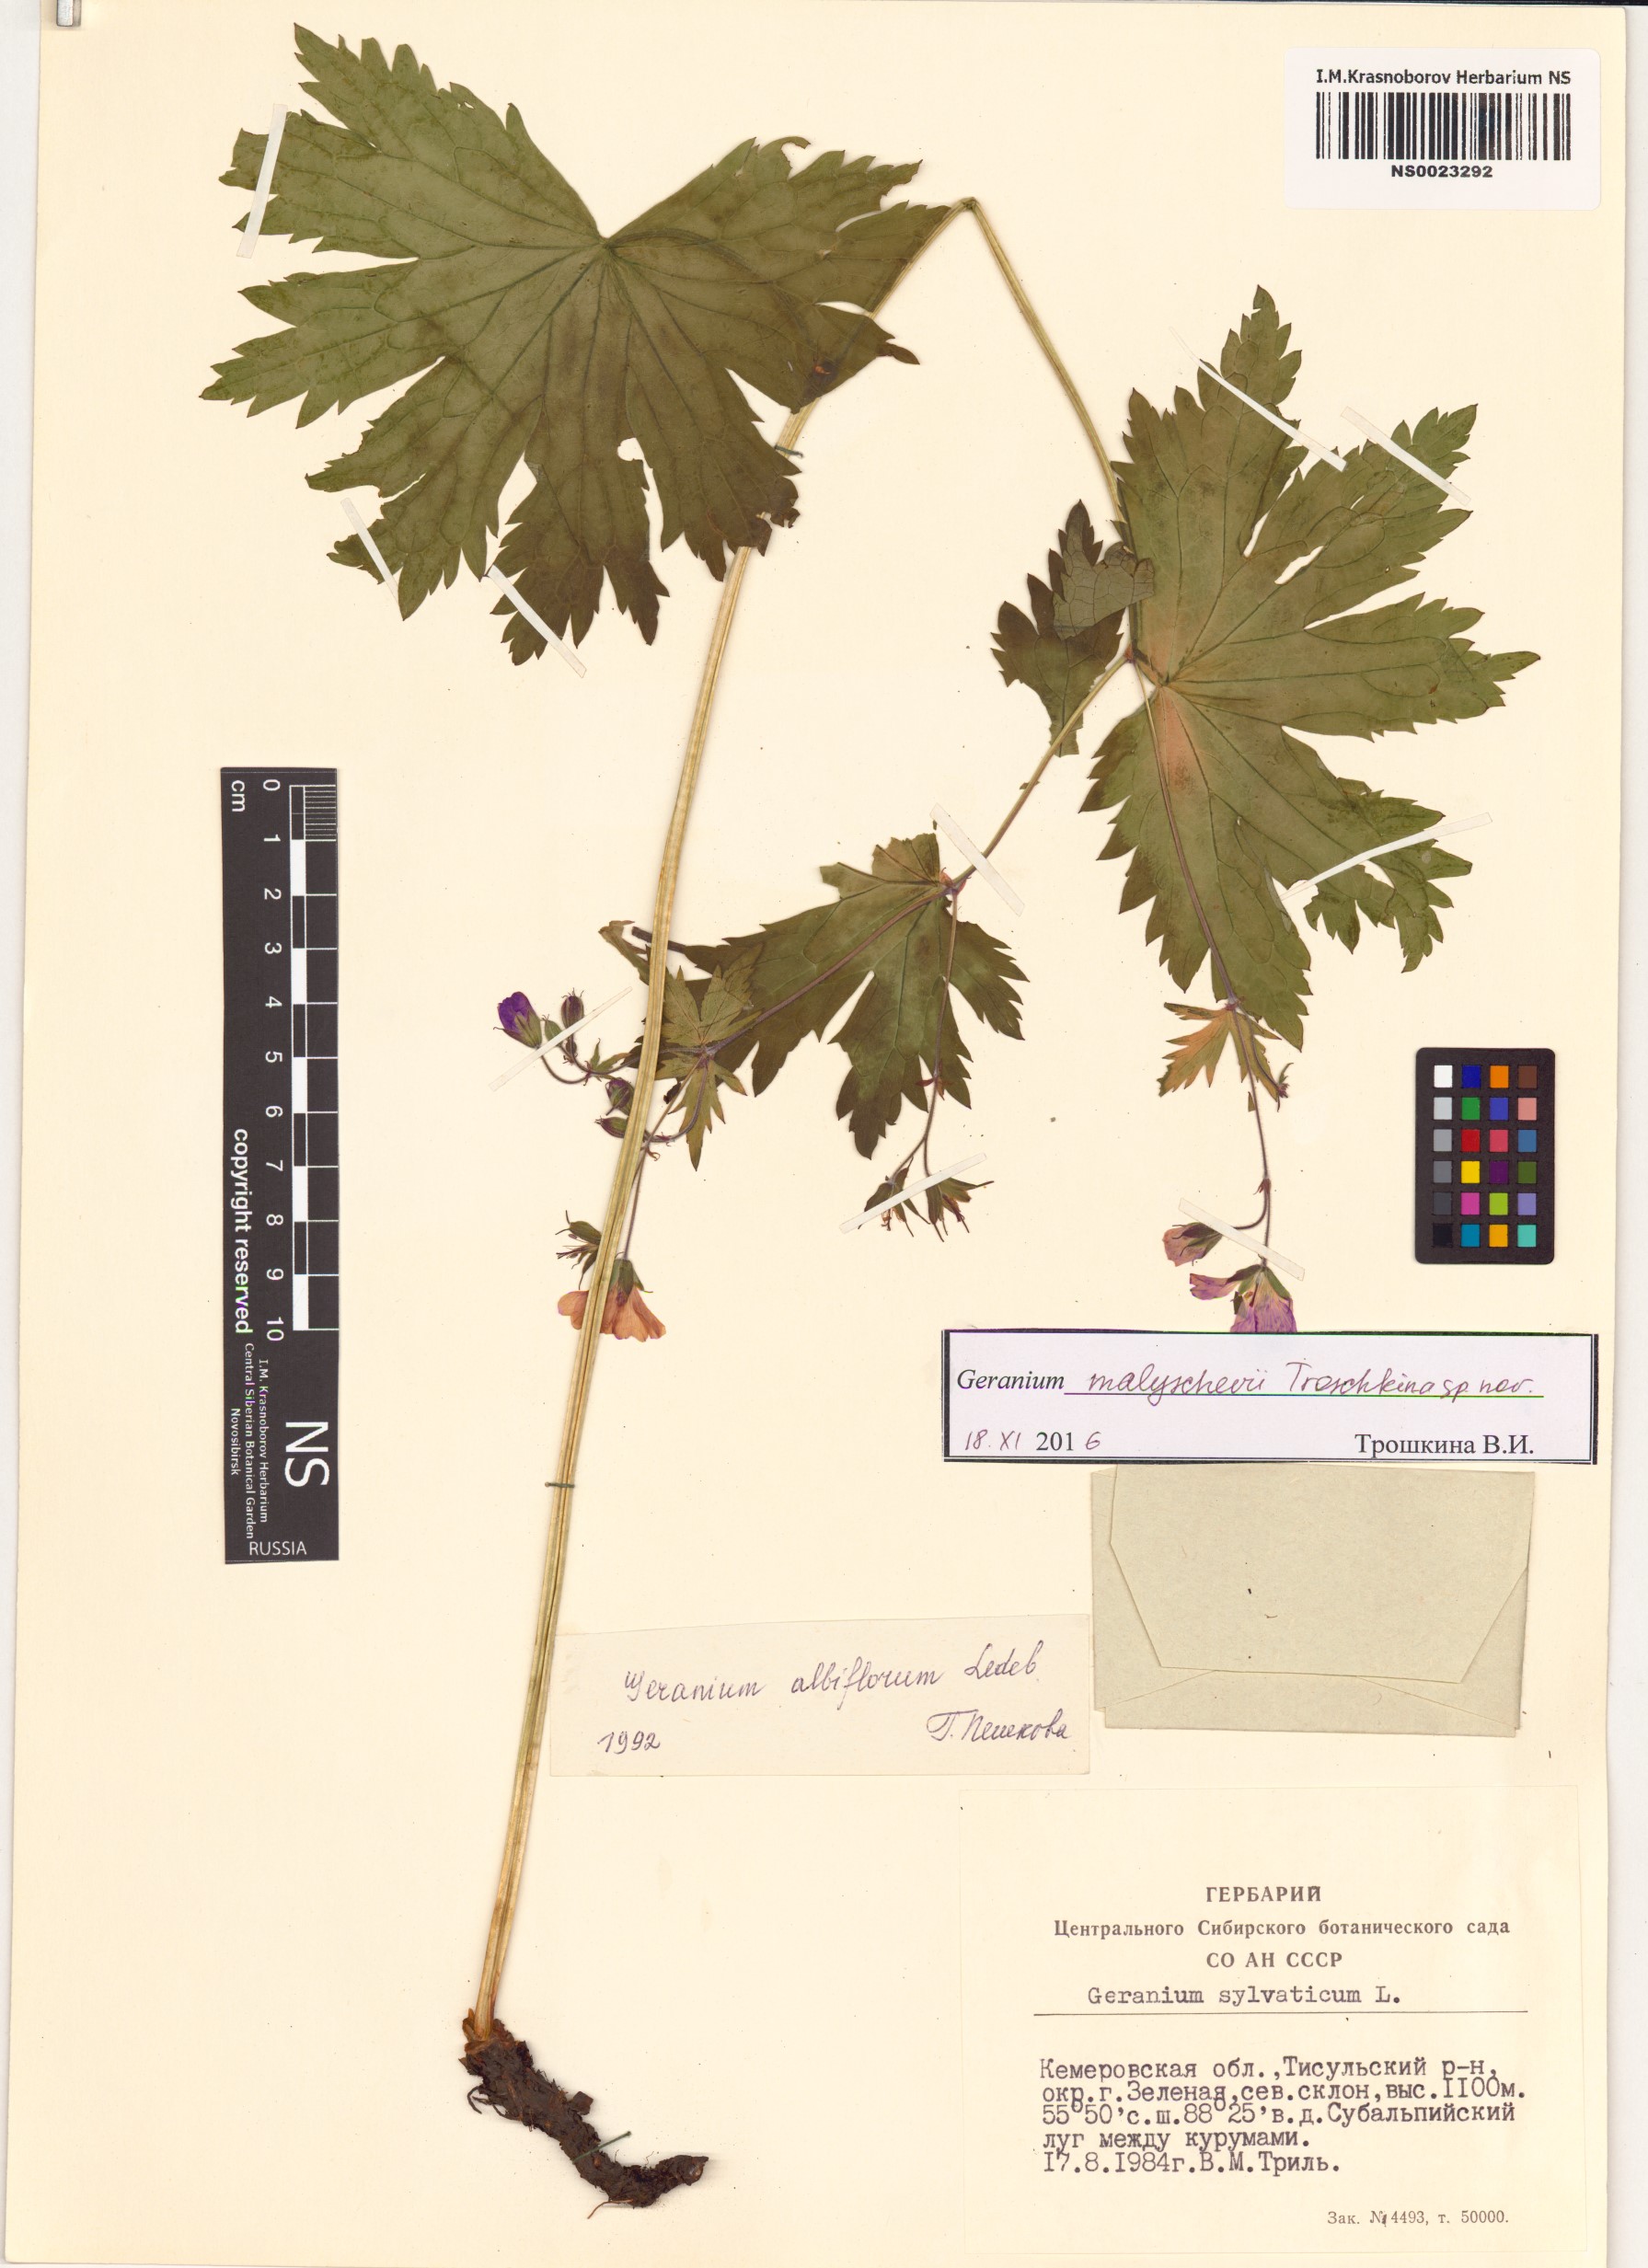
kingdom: Plantae
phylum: Tracheophyta
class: Magnoliopsida
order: Geraniales
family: Geraniaceae
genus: Geranium
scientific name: Geranium malyschevii
